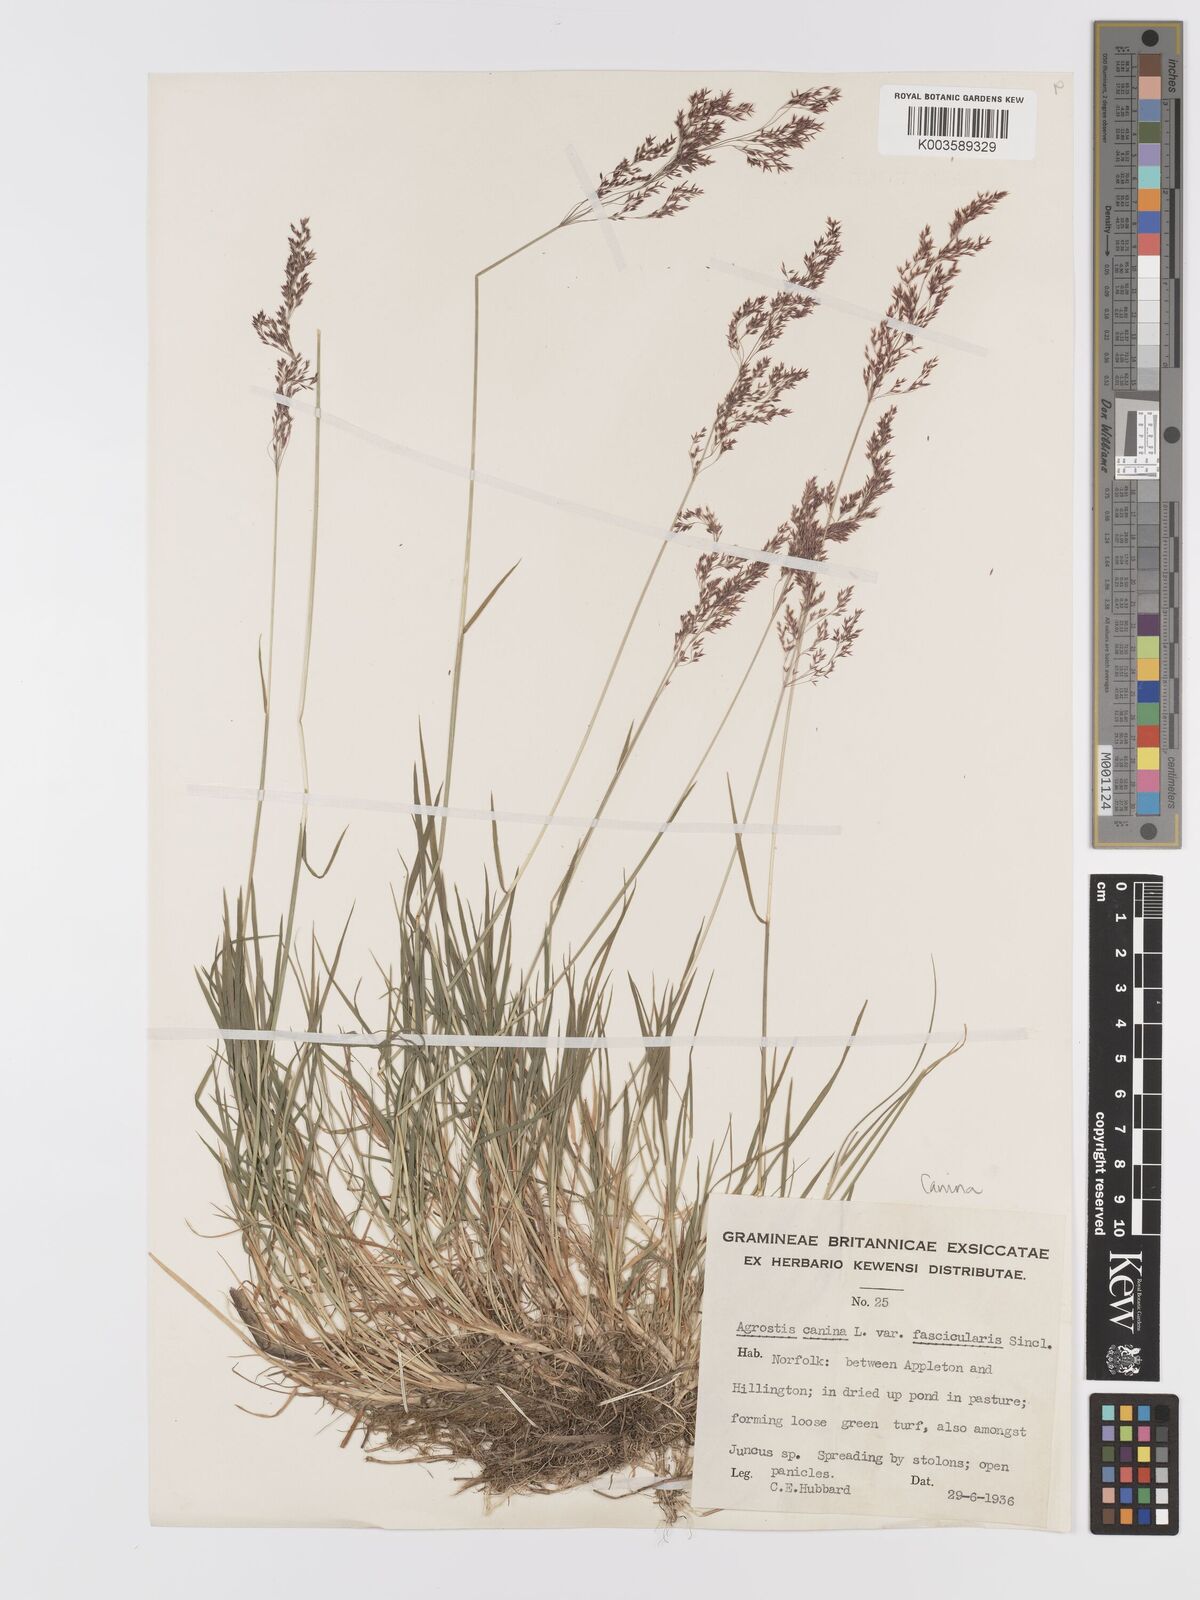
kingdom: Plantae
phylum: Tracheophyta
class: Liliopsida
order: Poales
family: Poaceae
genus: Agrostis
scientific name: Agrostis canina
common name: Velvet bent
